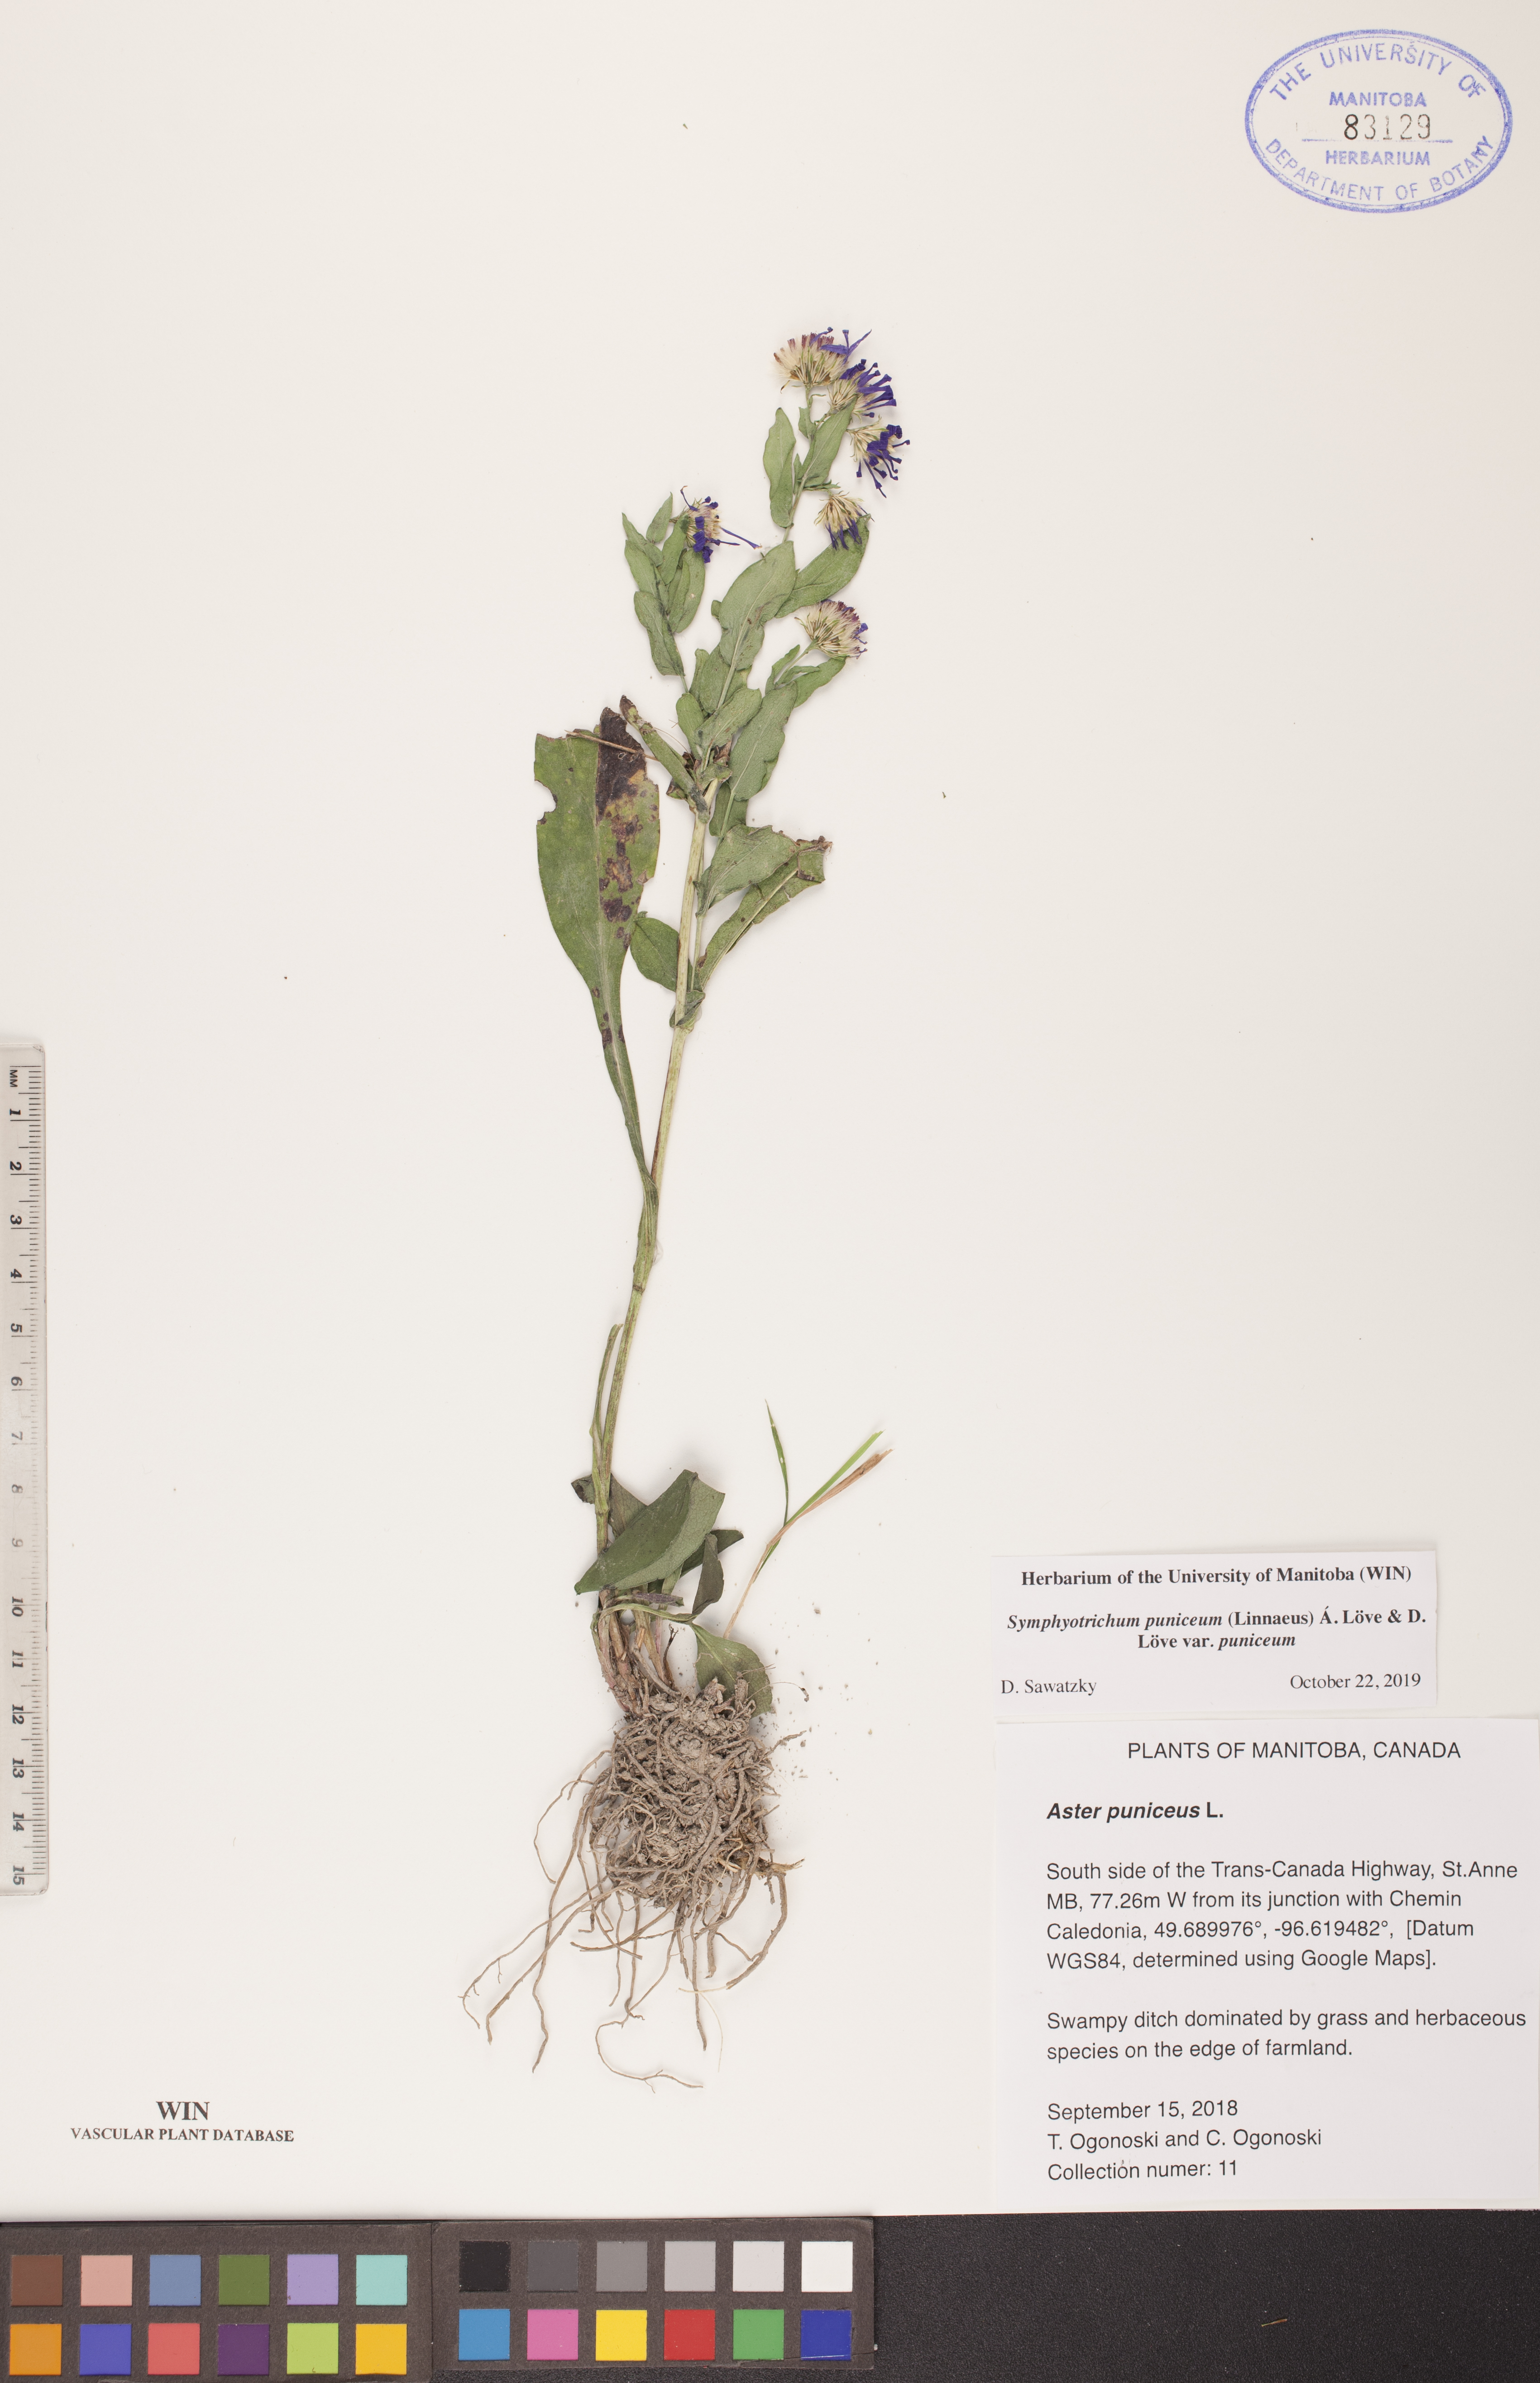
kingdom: Plantae
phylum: Tracheophyta
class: Magnoliopsida
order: Asterales
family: Asteraceae
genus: Symphyotrichum
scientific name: Symphyotrichum puniceum
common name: Bog aster
